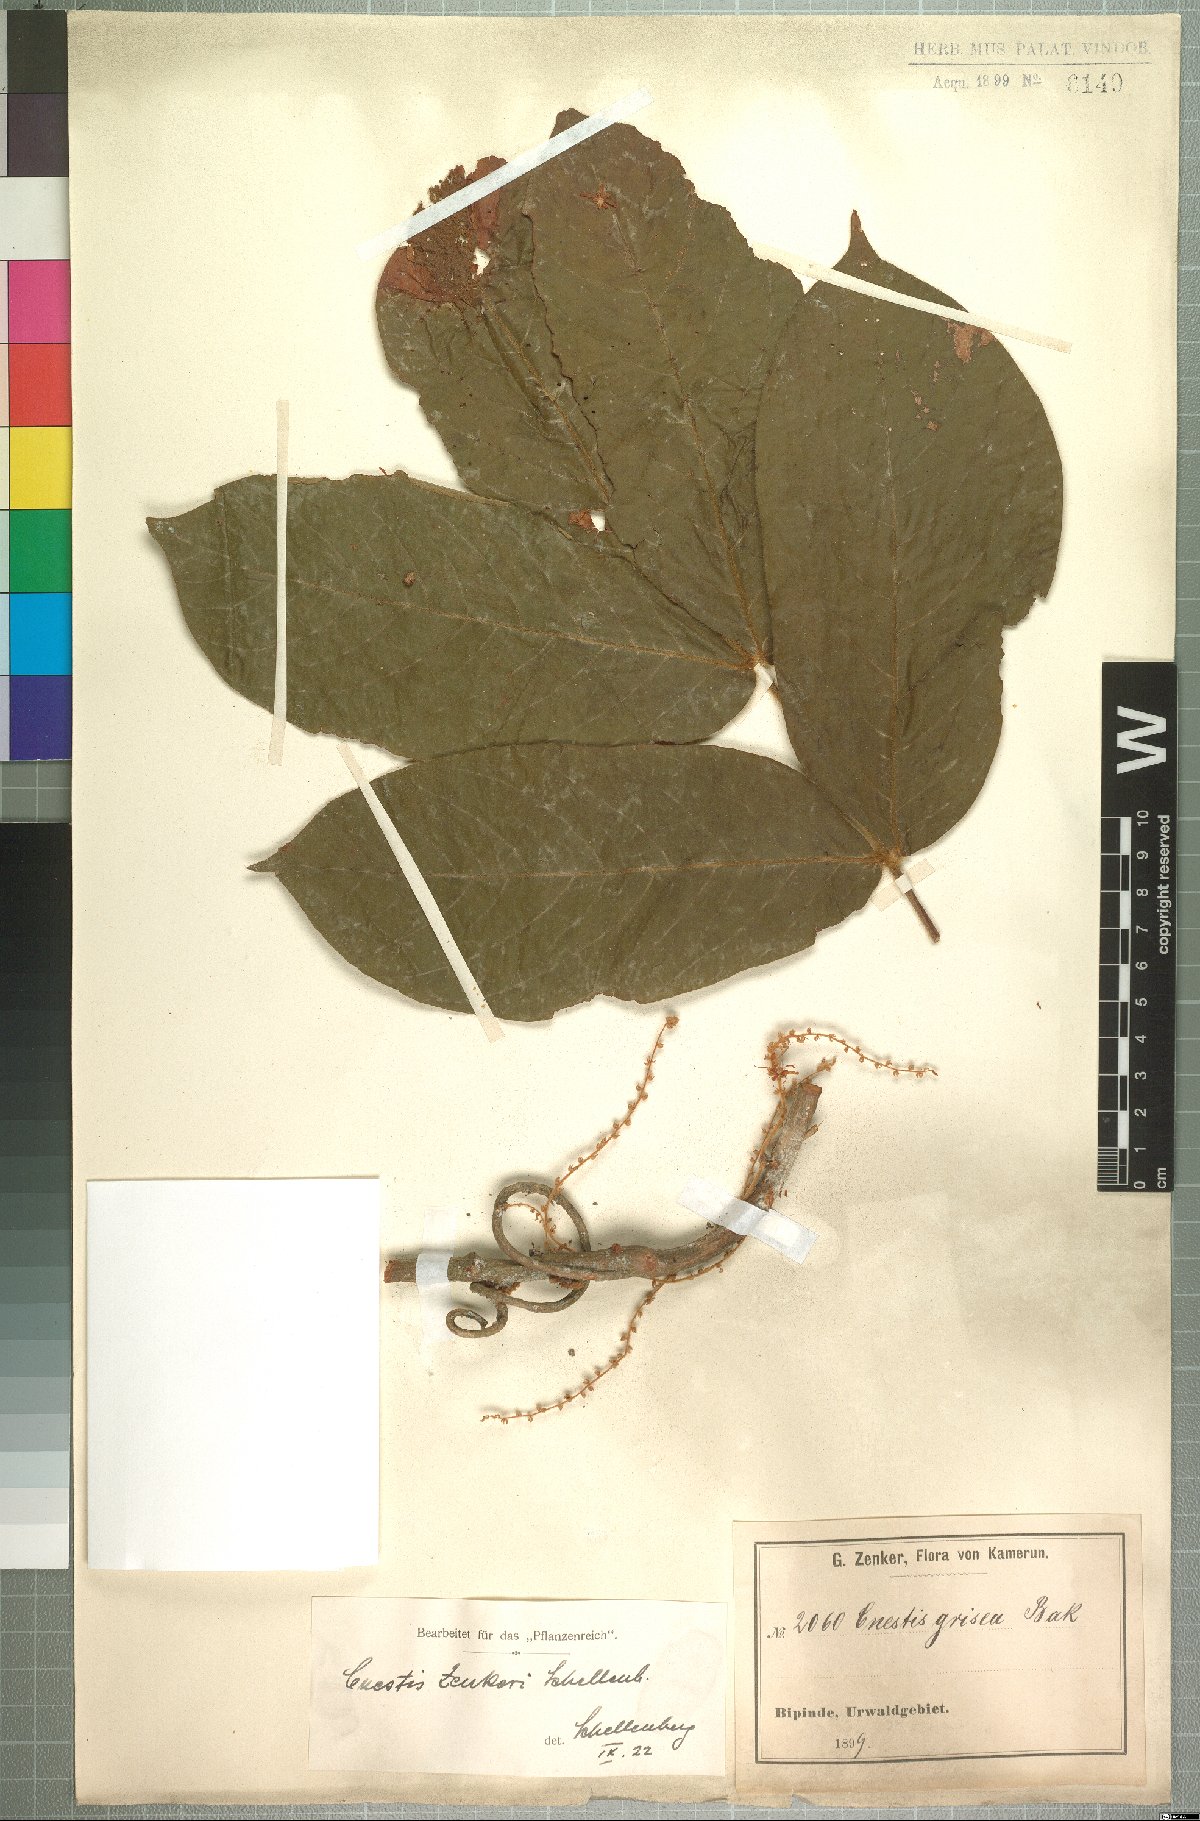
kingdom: Plantae
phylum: Tracheophyta
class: Magnoliopsida
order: Oxalidales
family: Connaraceae
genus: Cnestis
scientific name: Cnestis corniculata
